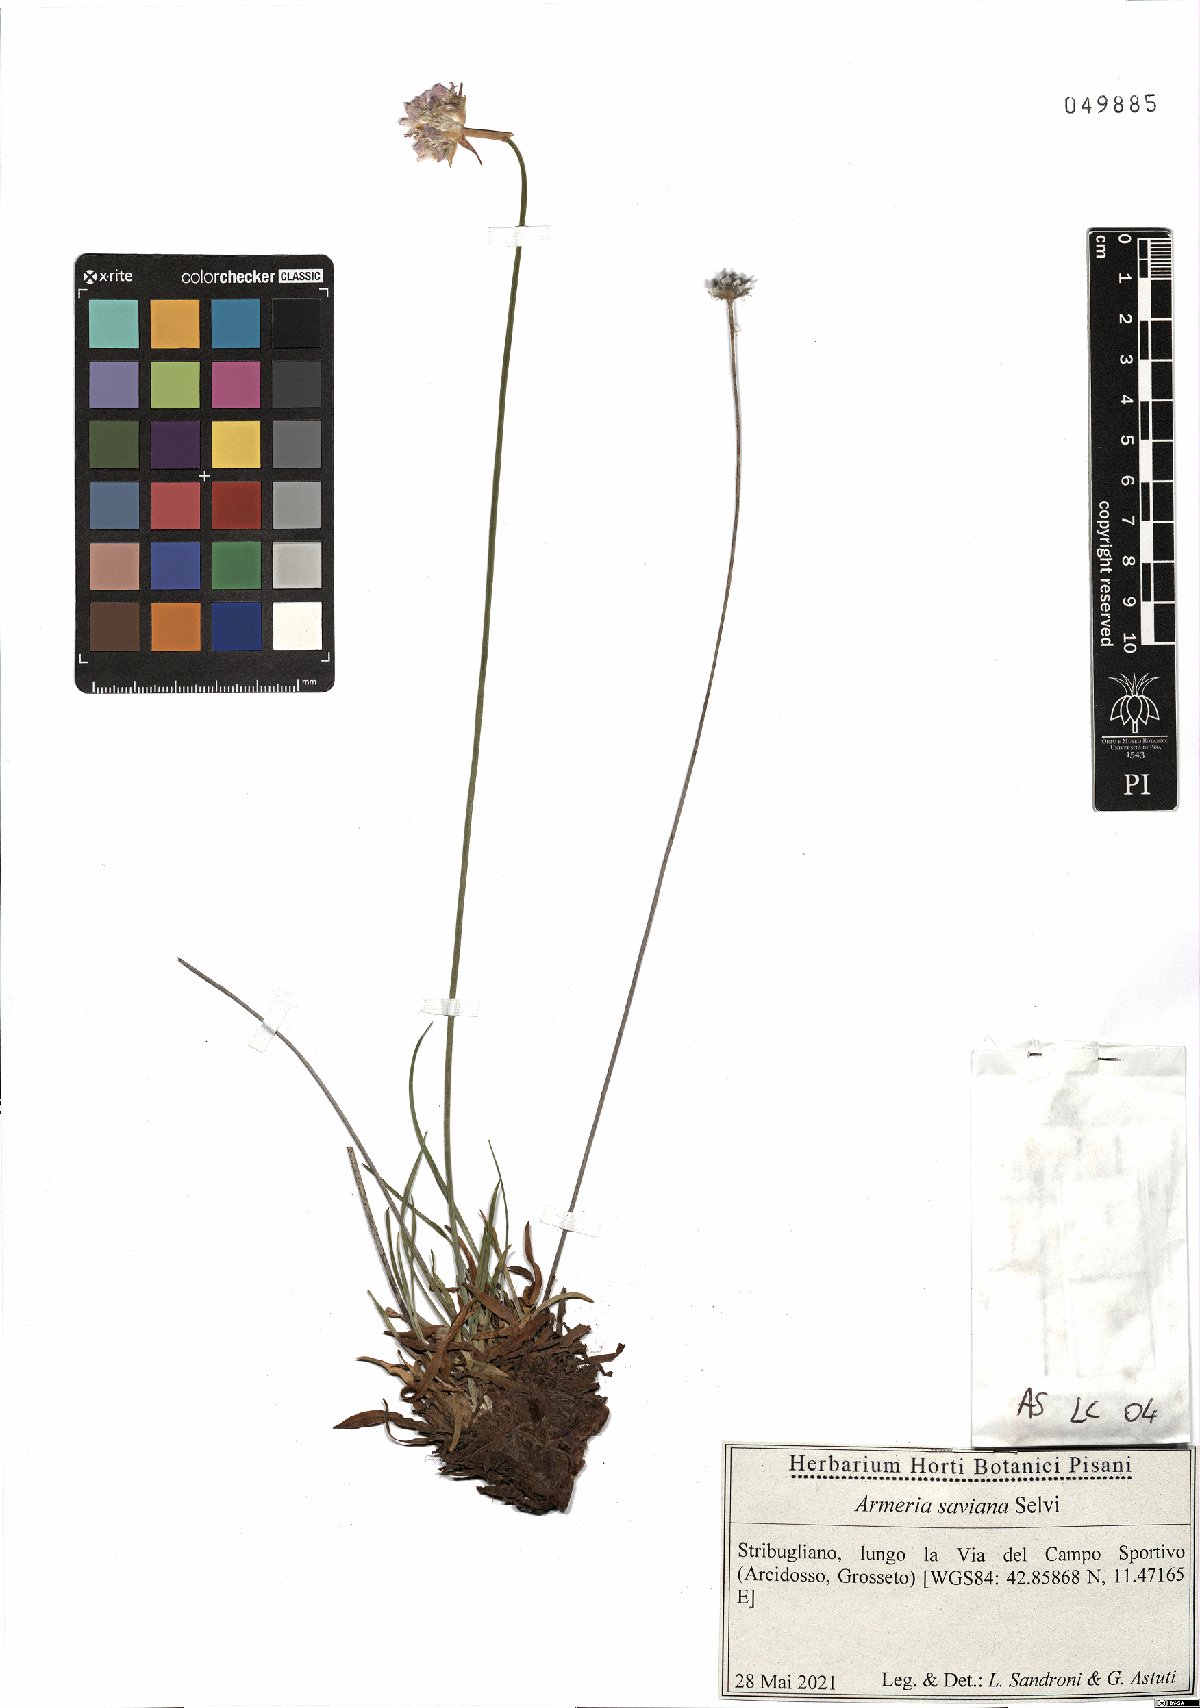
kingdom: Plantae
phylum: Tracheophyta
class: Magnoliopsida
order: Caryophyllales
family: Plumbaginaceae
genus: Armeria
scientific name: Armeria saviana
